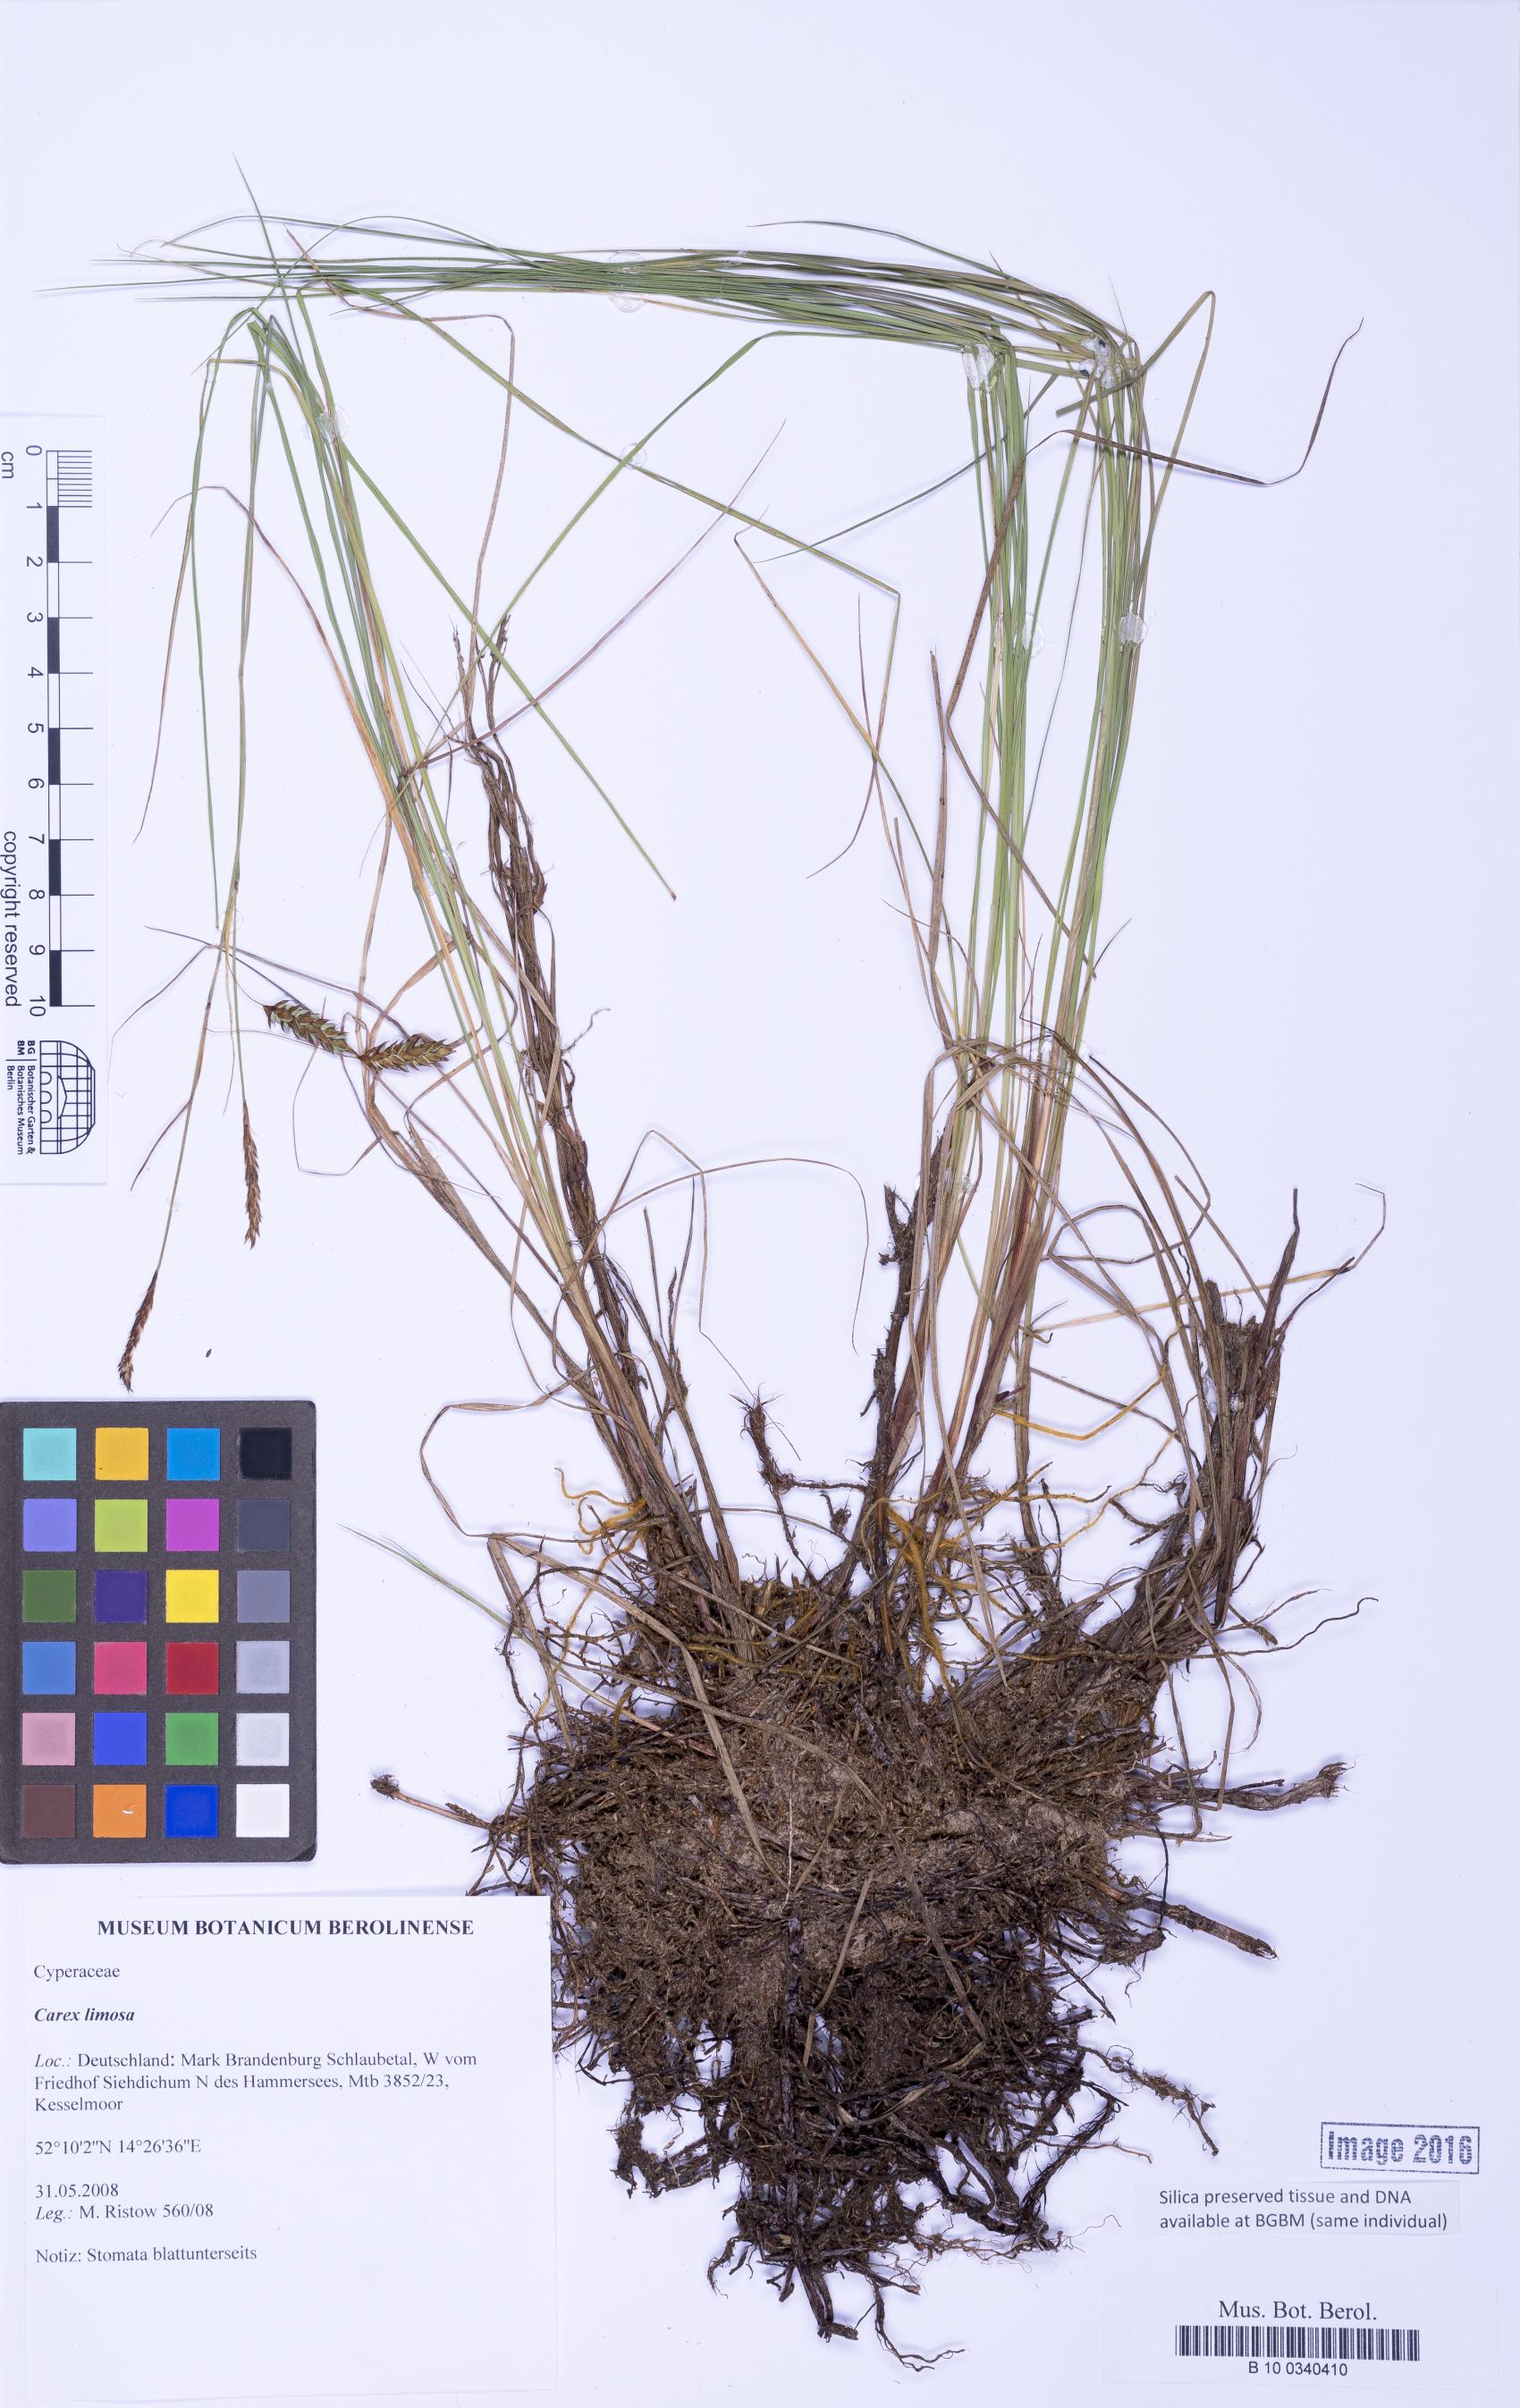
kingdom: Plantae
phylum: Tracheophyta
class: Liliopsida
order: Poales
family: Cyperaceae
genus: Carex
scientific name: Carex limosa
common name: Bog sedge
